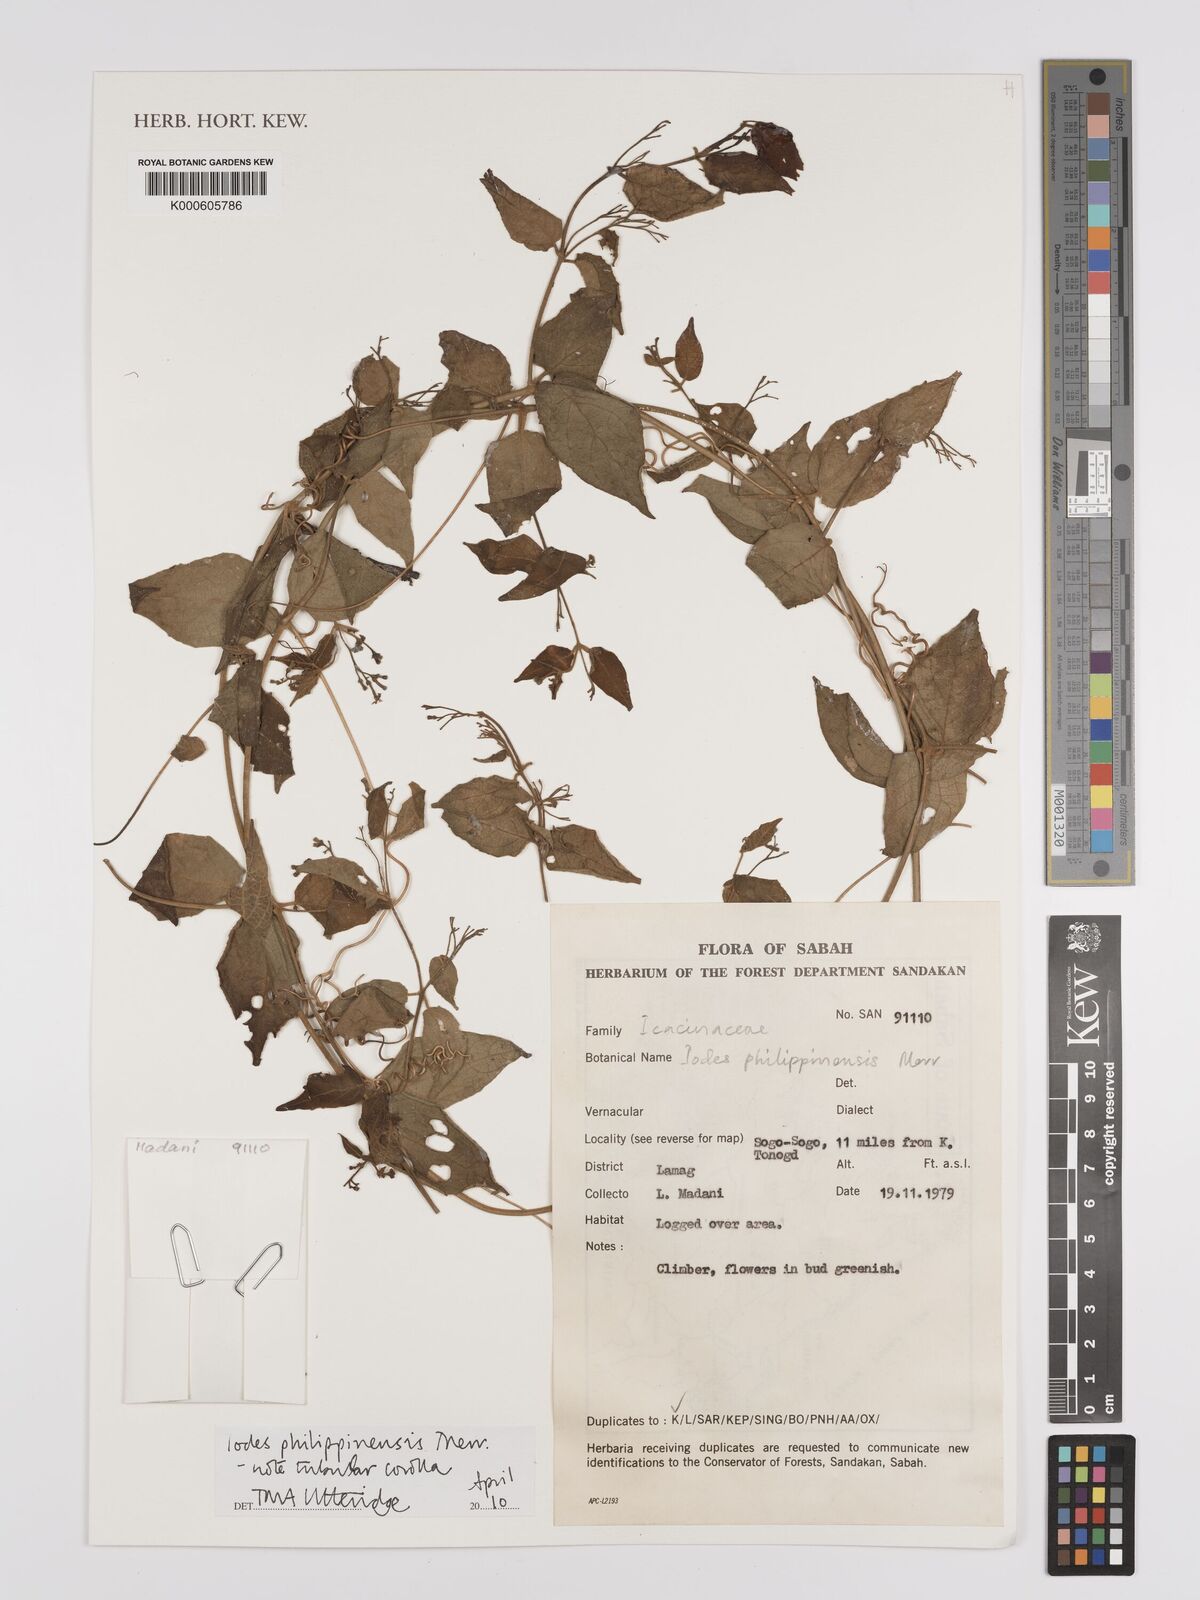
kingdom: Plantae
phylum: Tracheophyta
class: Magnoliopsida
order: Icacinales
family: Icacinaceae
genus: Iodes
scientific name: Iodes philippinensis
